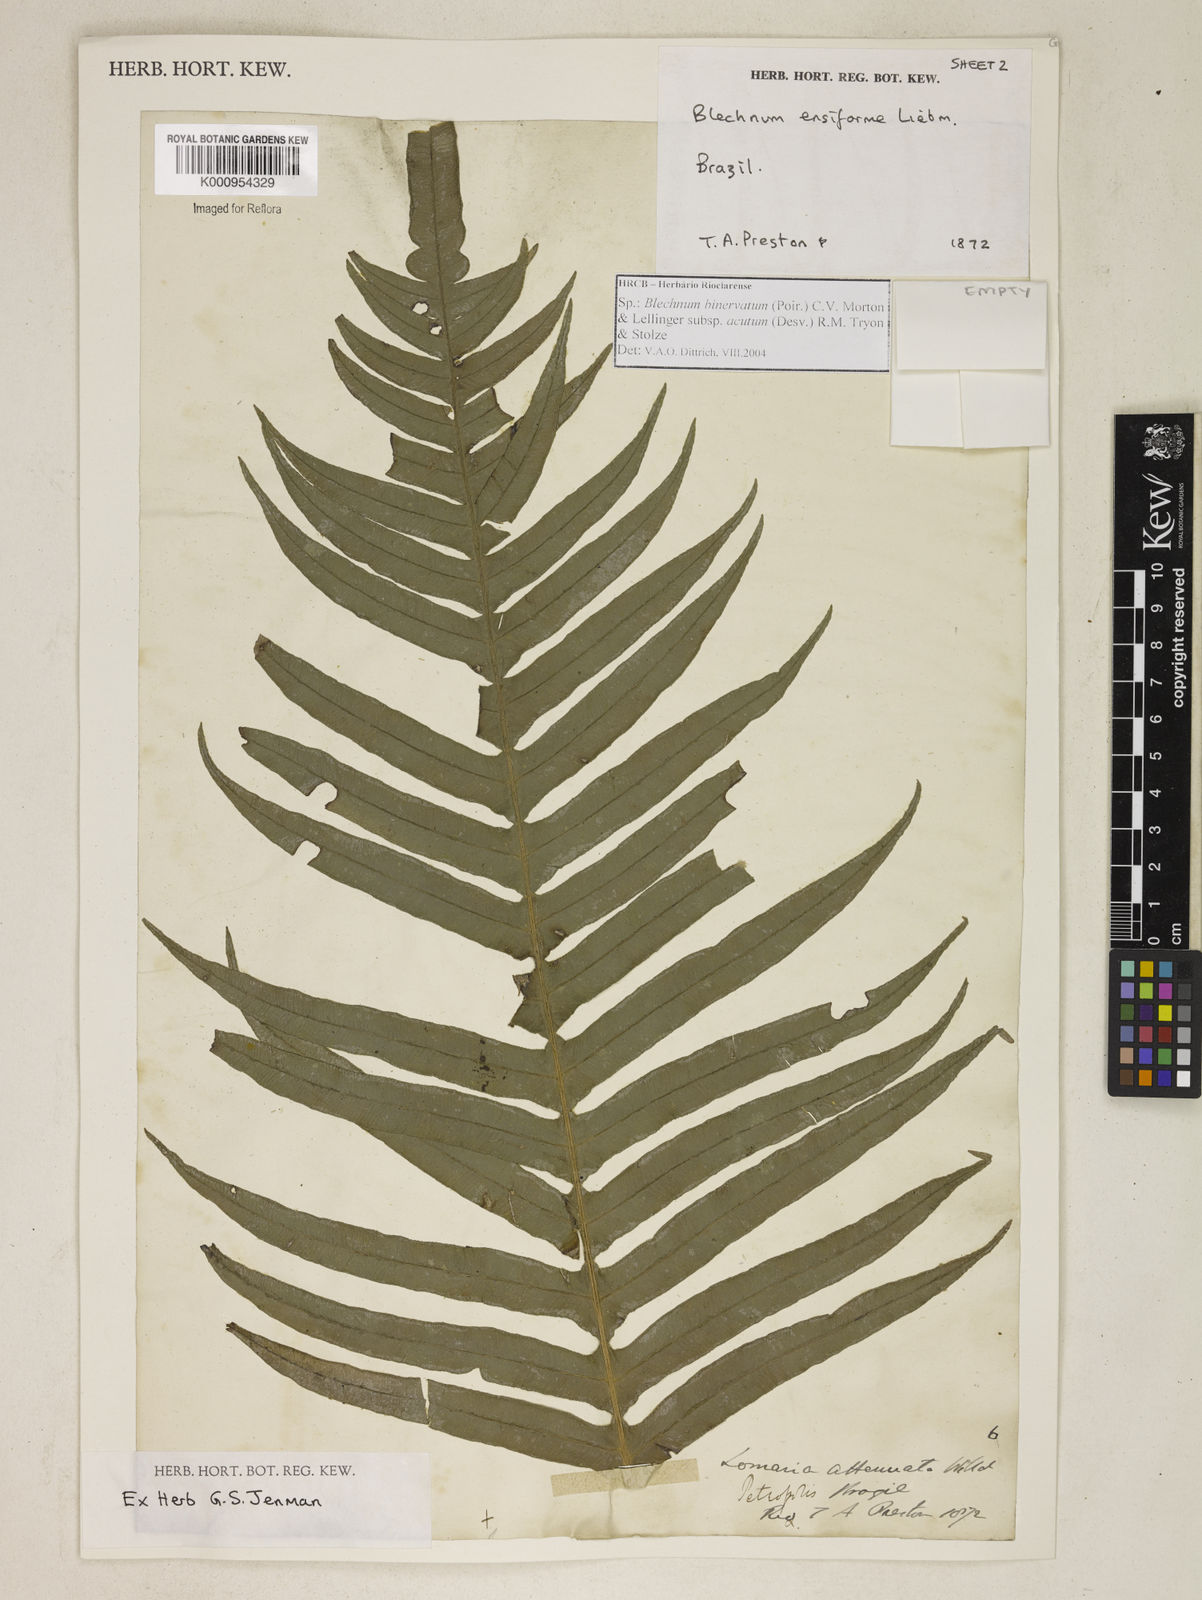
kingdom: Plantae
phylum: Tracheophyta
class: Polypodiopsida
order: Polypodiales
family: Blechnaceae
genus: Lomaridium
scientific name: Lomaridium ensiforme
